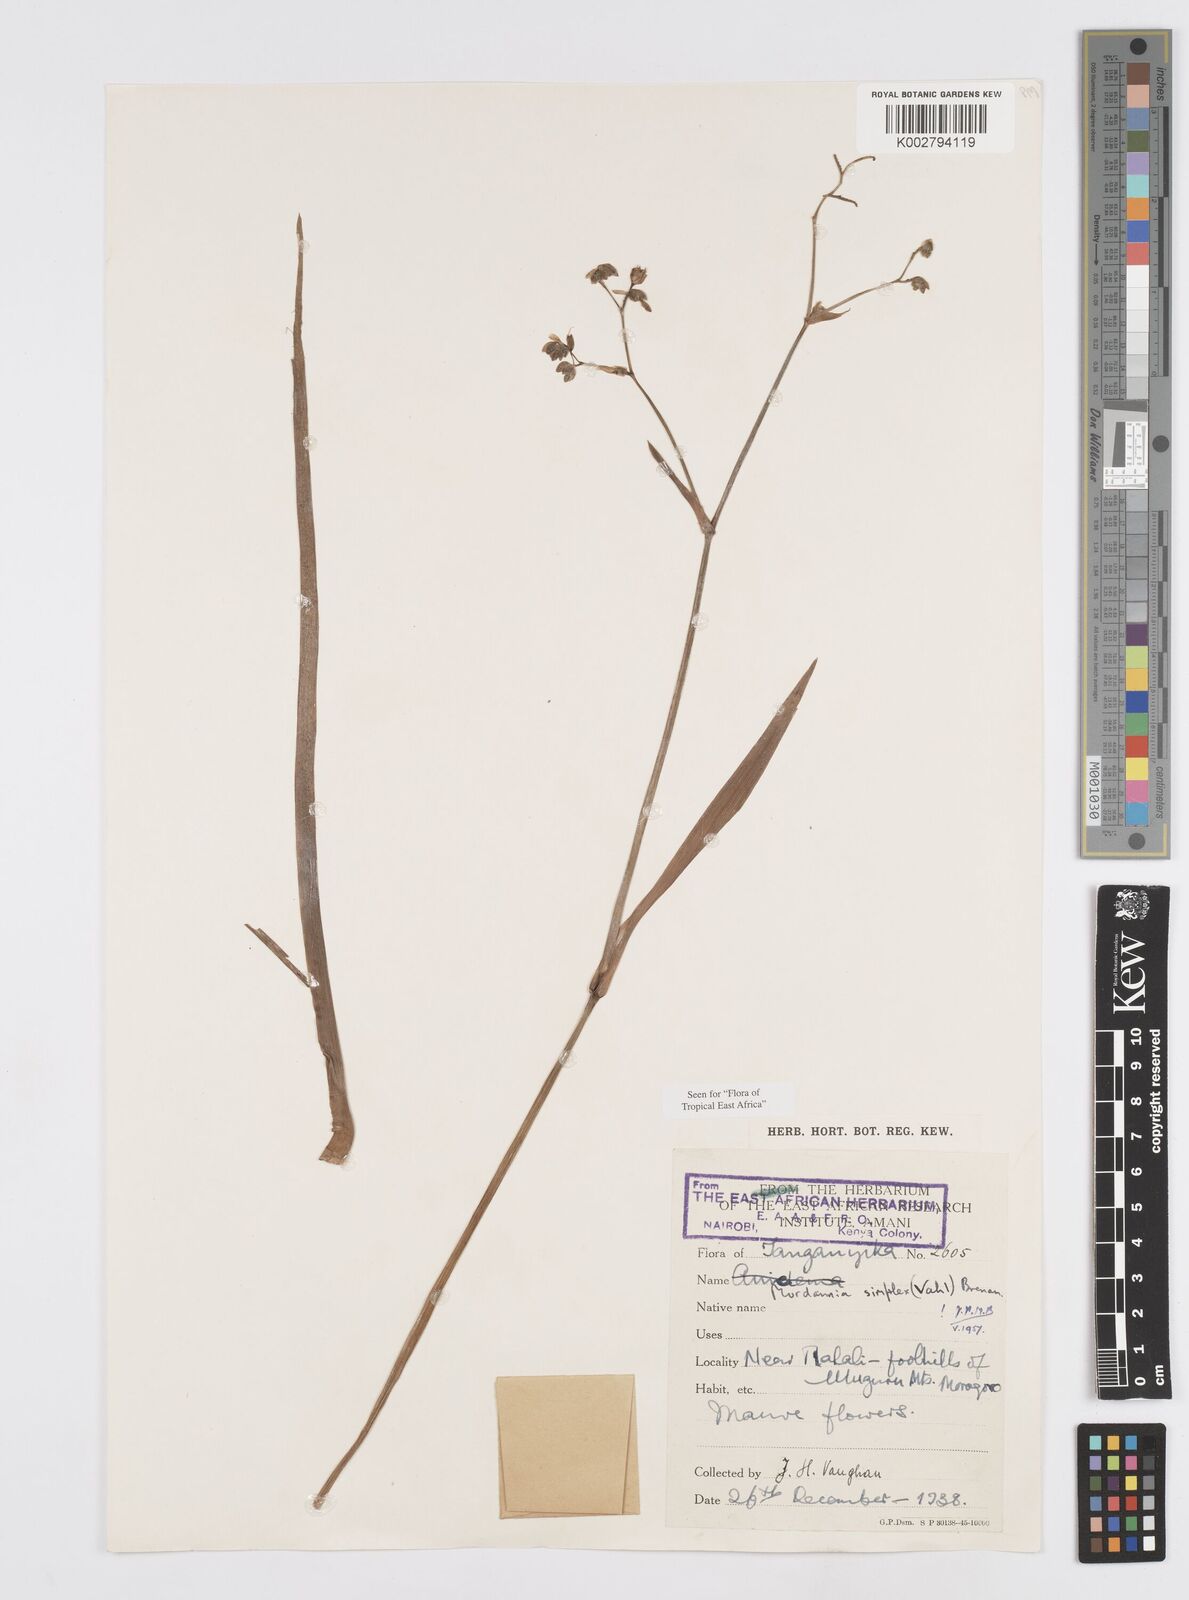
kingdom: Plantae
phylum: Tracheophyta
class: Liliopsida
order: Commelinales
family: Commelinaceae
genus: Murdannia
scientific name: Murdannia simplex
